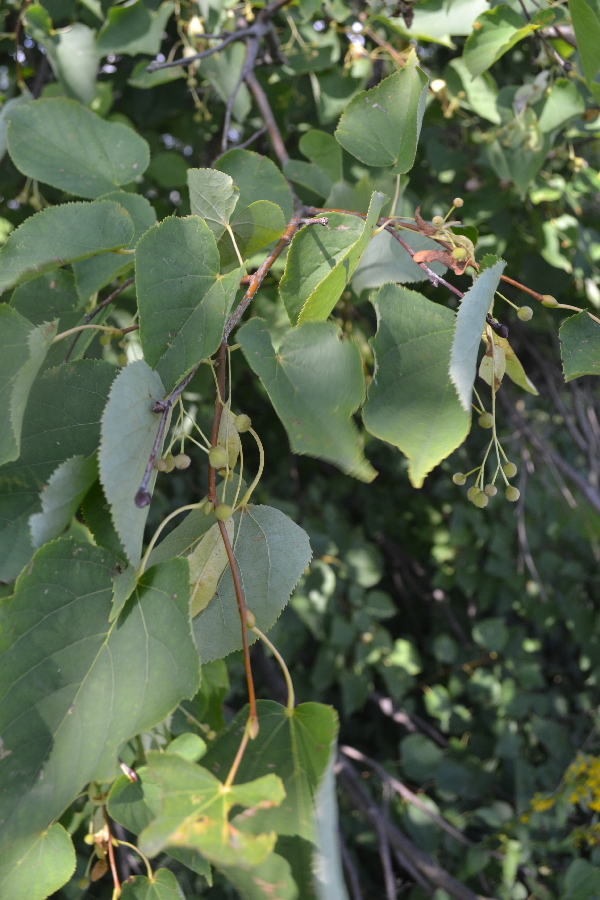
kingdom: Plantae
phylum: Tracheophyta
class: Magnoliopsida
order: Malvales
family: Malvaceae
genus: Tilia
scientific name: Tilia cordata
